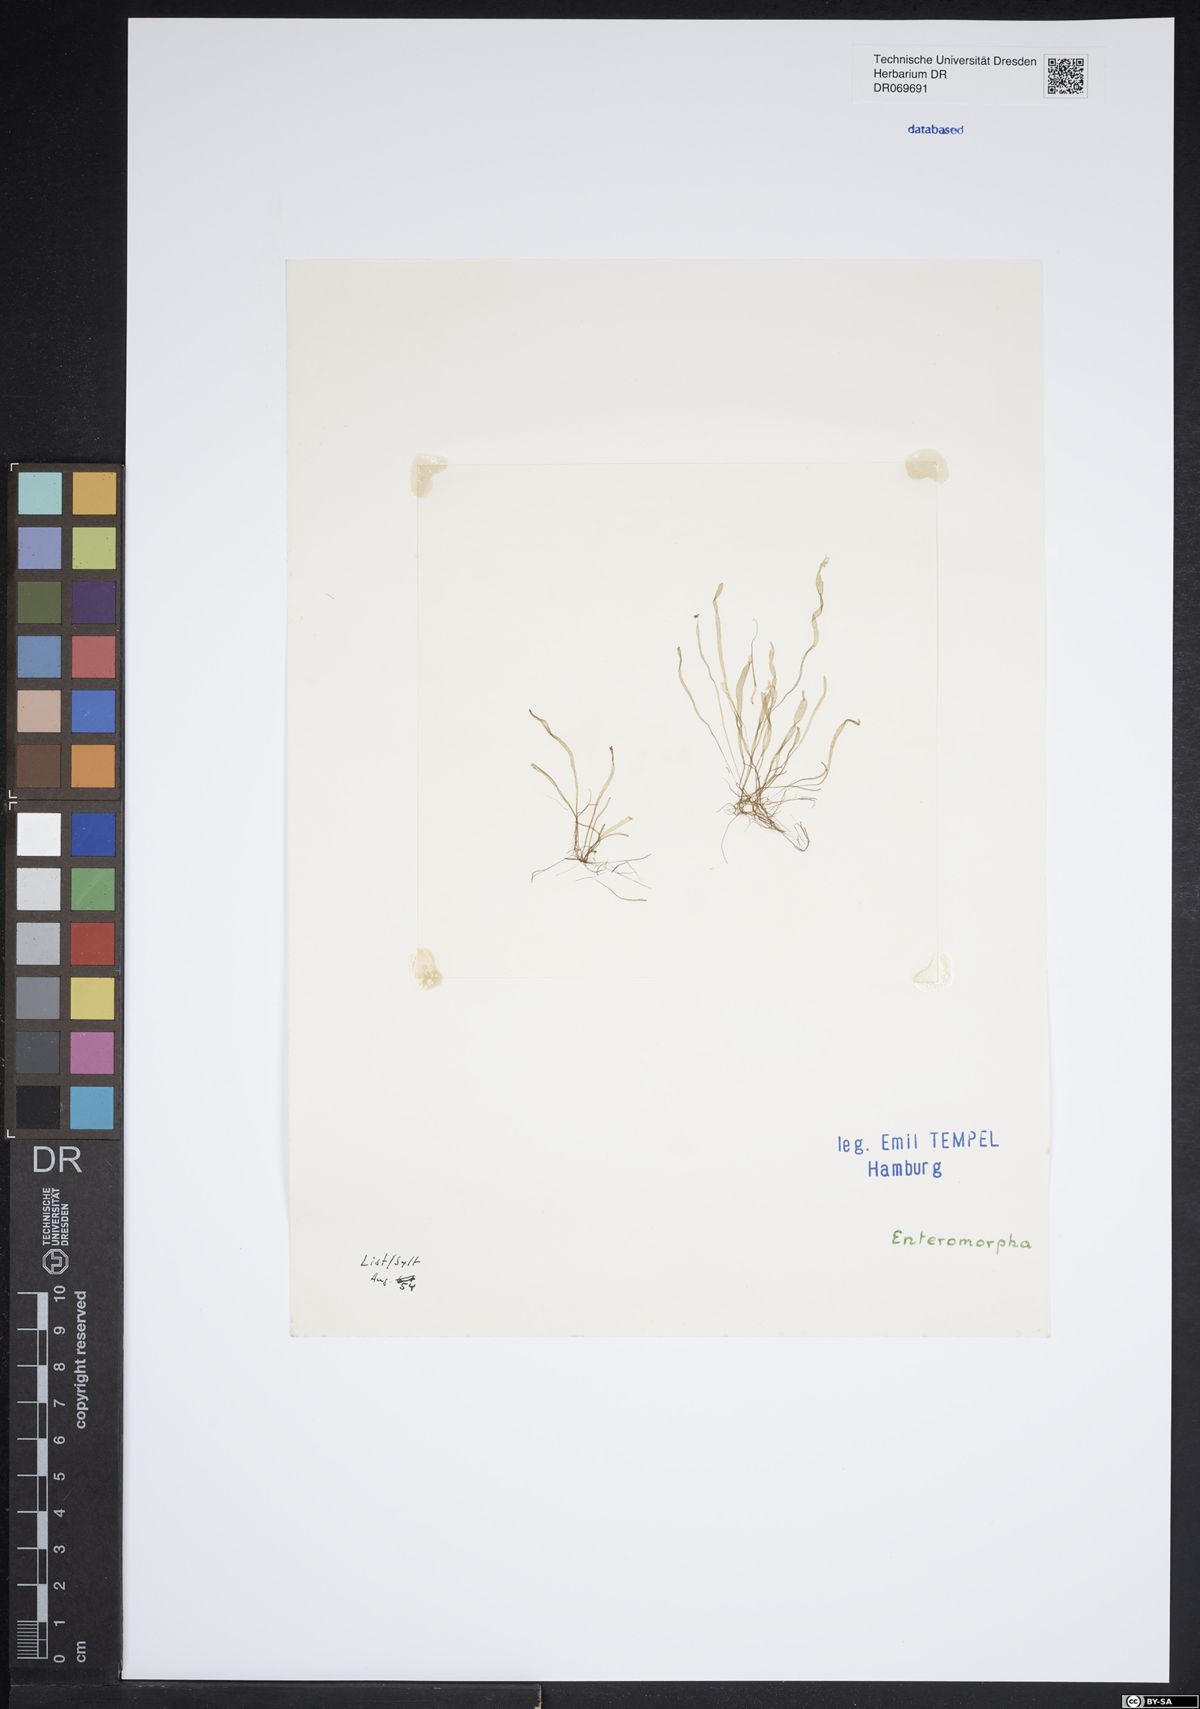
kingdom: Plantae
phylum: Chlorophyta
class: Ulvophyceae
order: Ulvales
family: Ulvaceae
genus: Ulva
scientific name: Ulva
